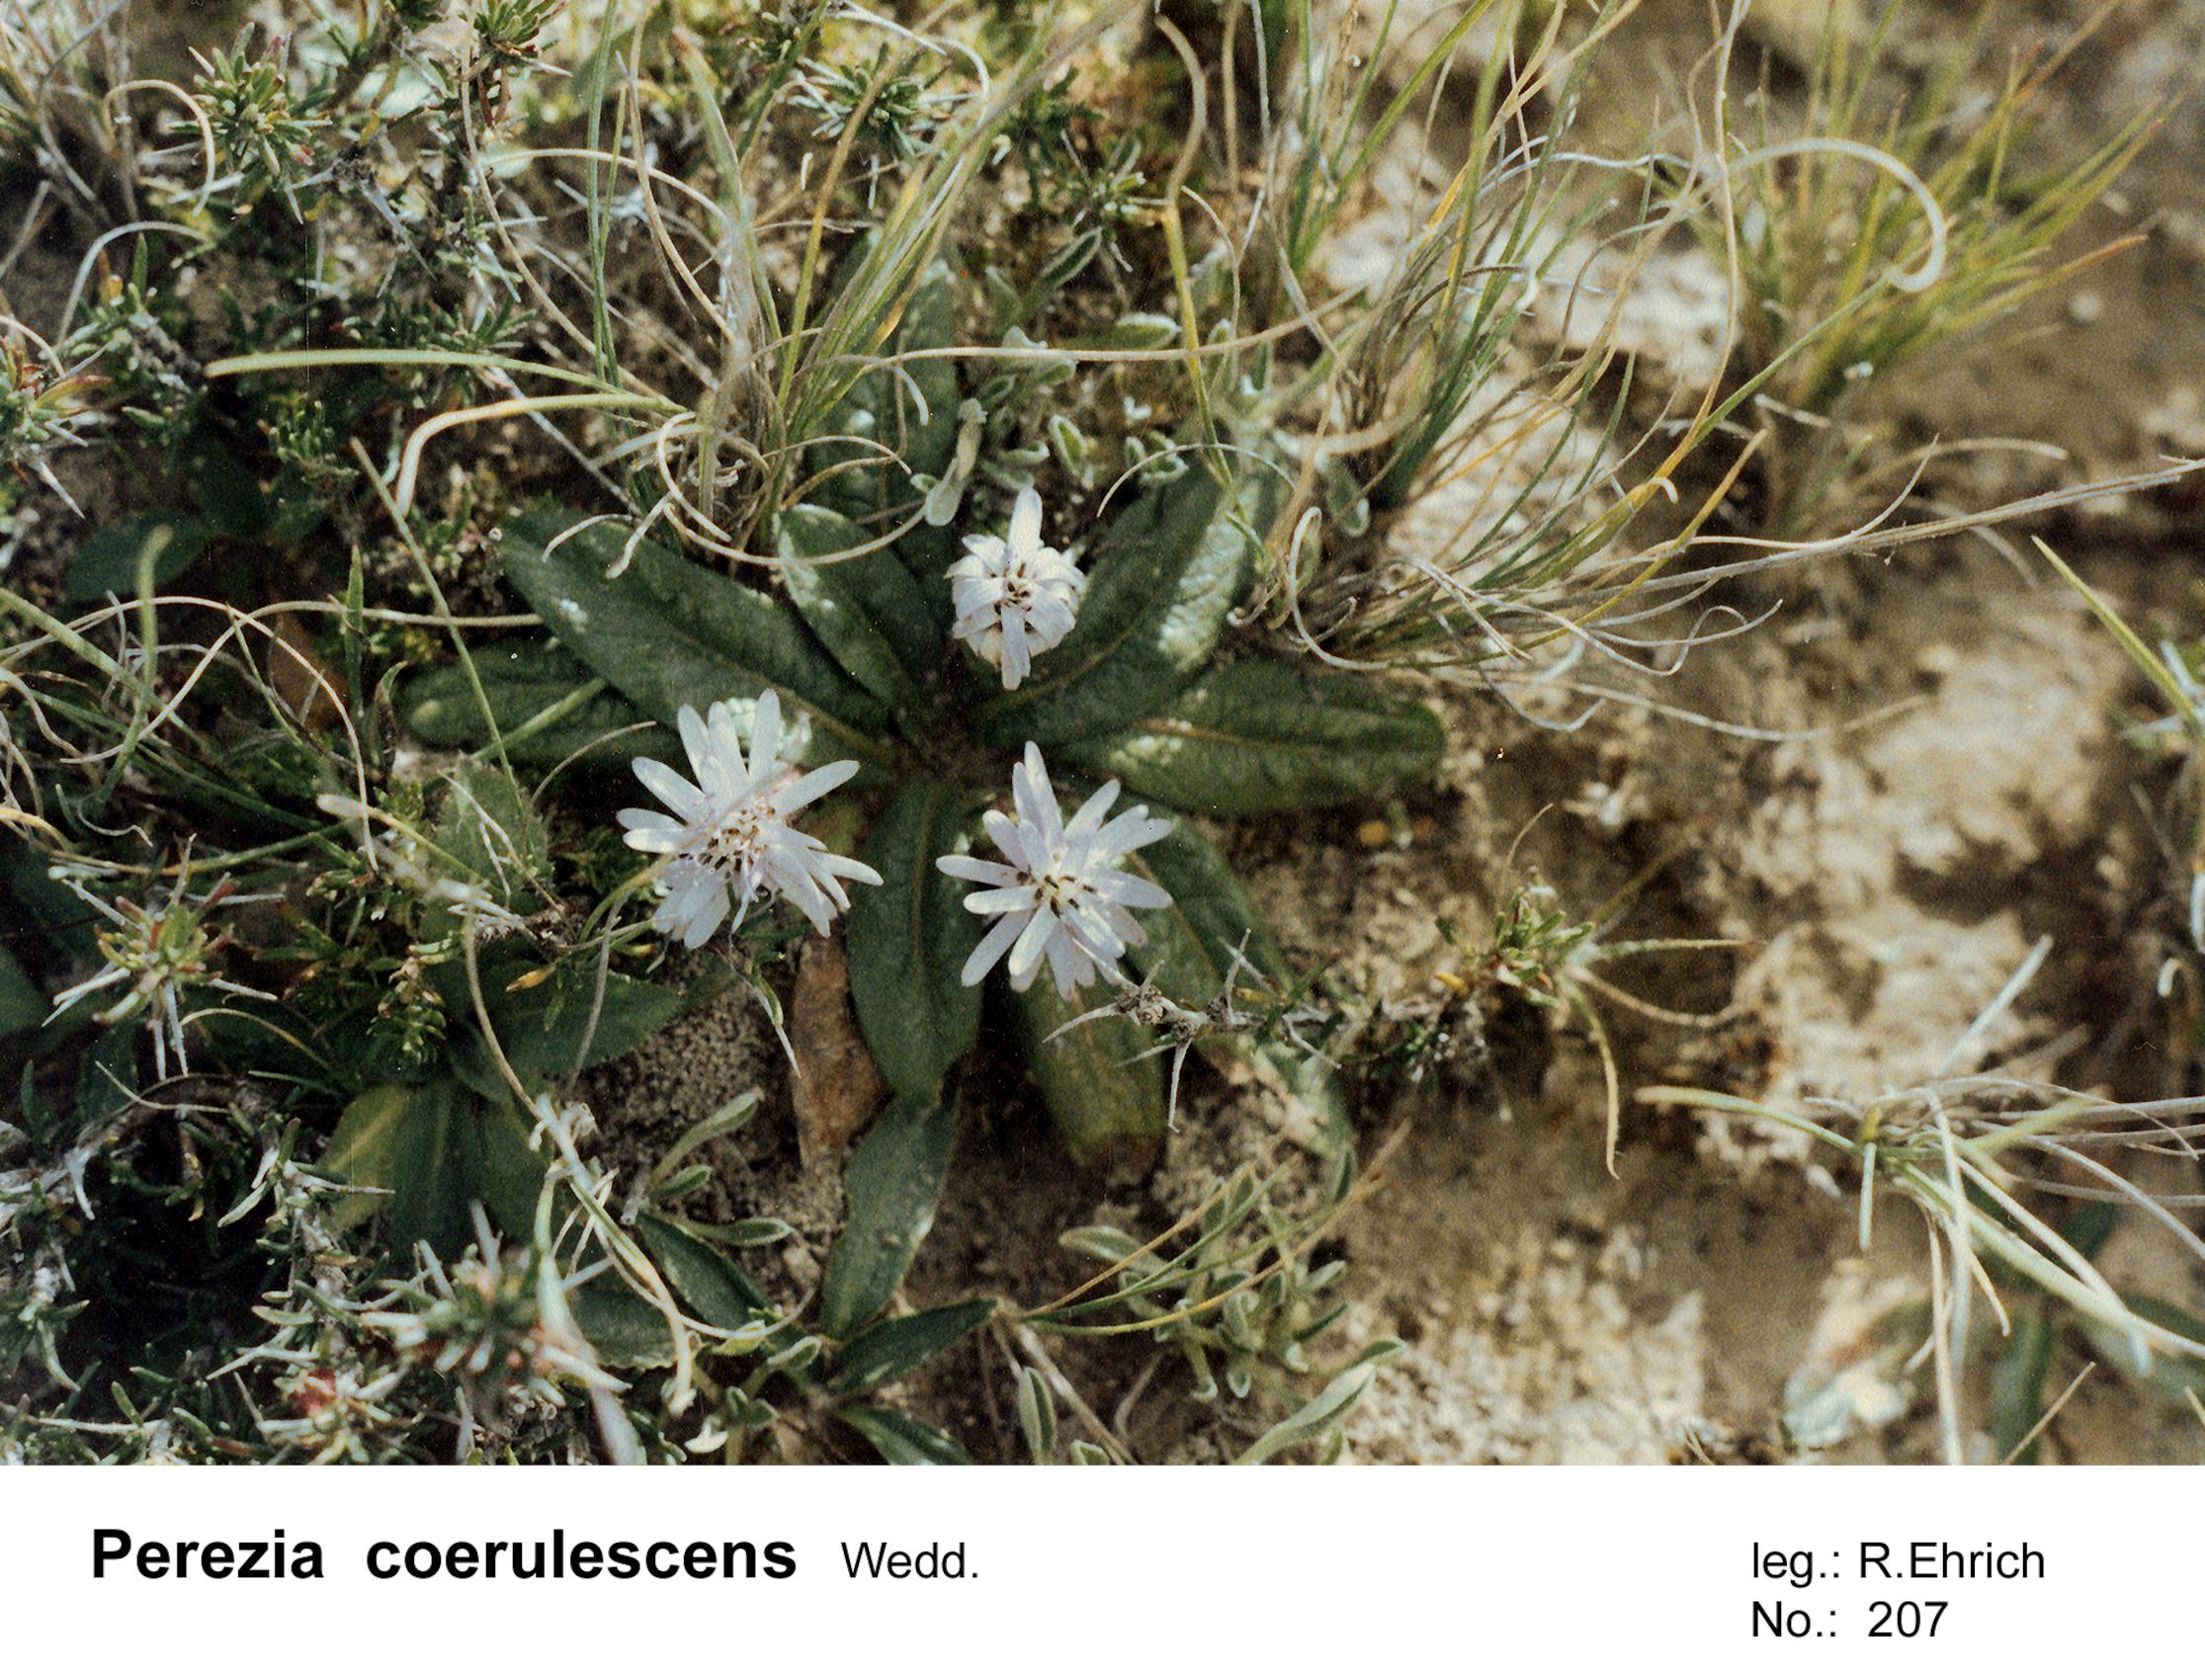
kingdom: Plantae
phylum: Tracheophyta
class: Magnoliopsida
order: Asterales
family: Asteraceae
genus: Perezia
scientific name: Perezia pinnatifida
